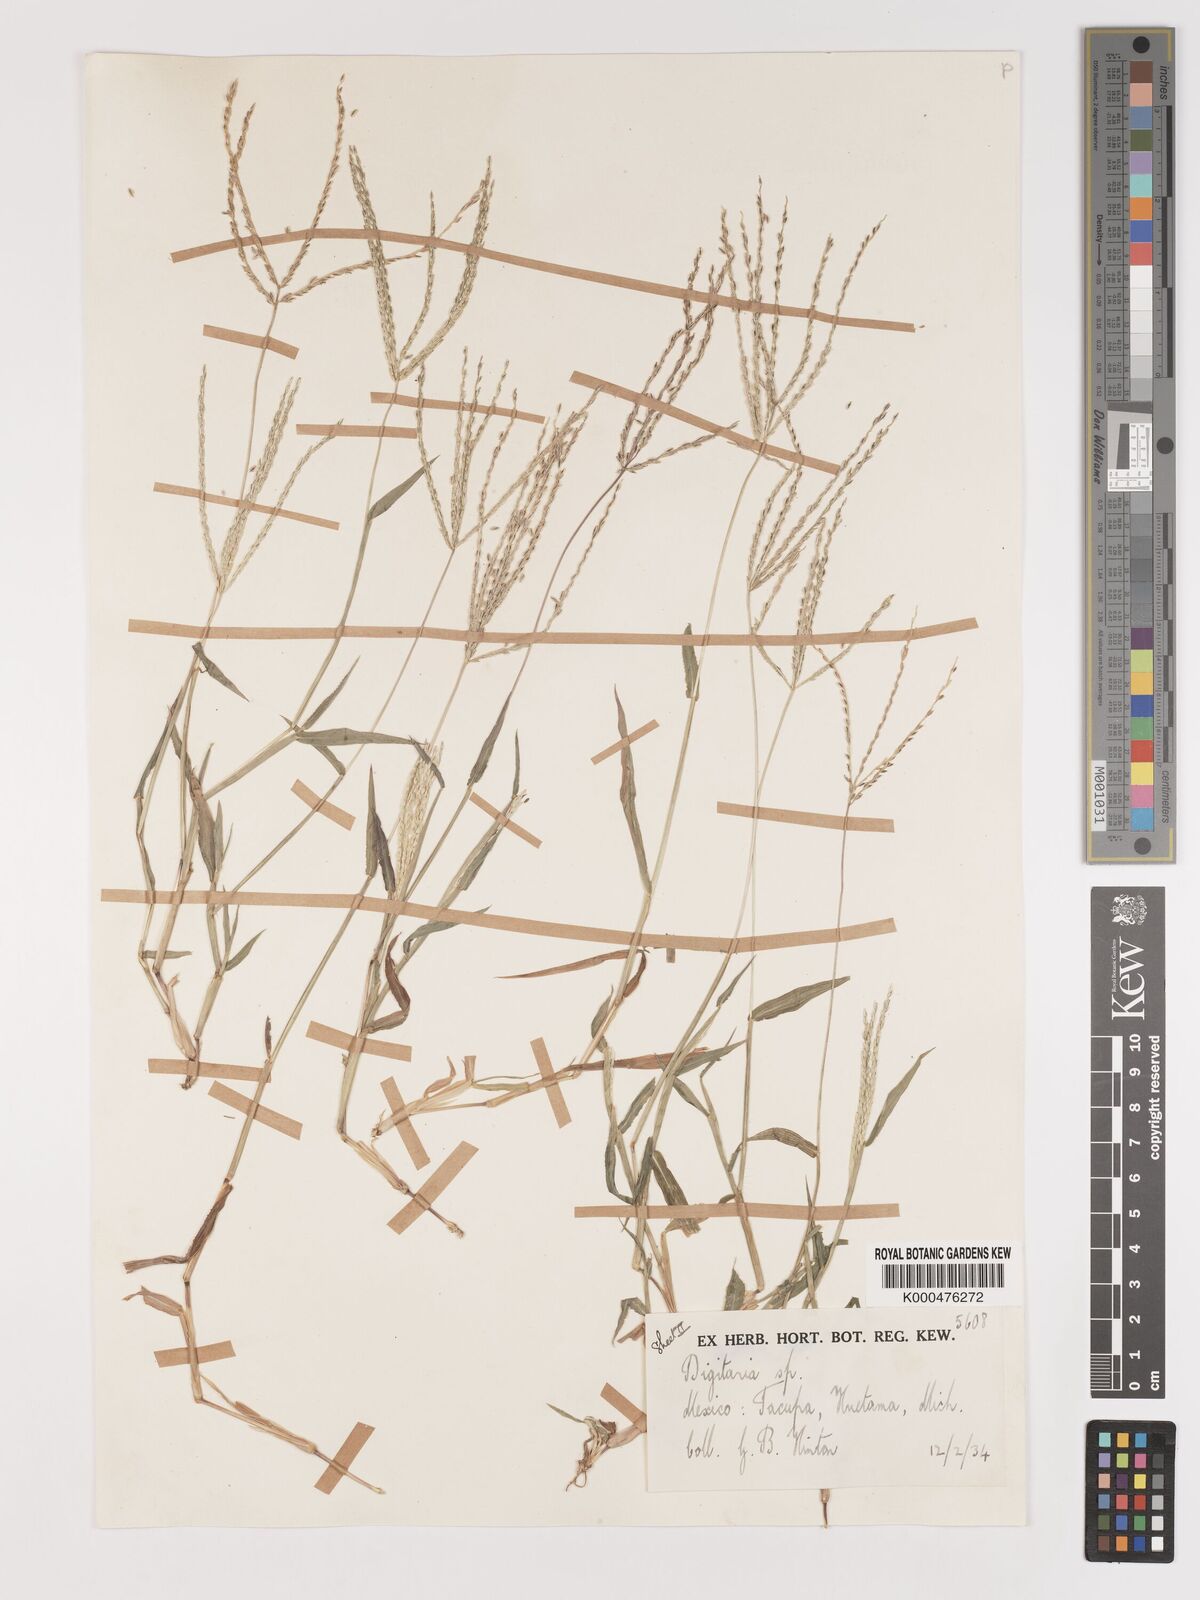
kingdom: Plantae
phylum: Tracheophyta
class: Liliopsida
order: Poales
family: Poaceae
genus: Digitaria
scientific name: Digitaria nuda
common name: Naked crabgrass
